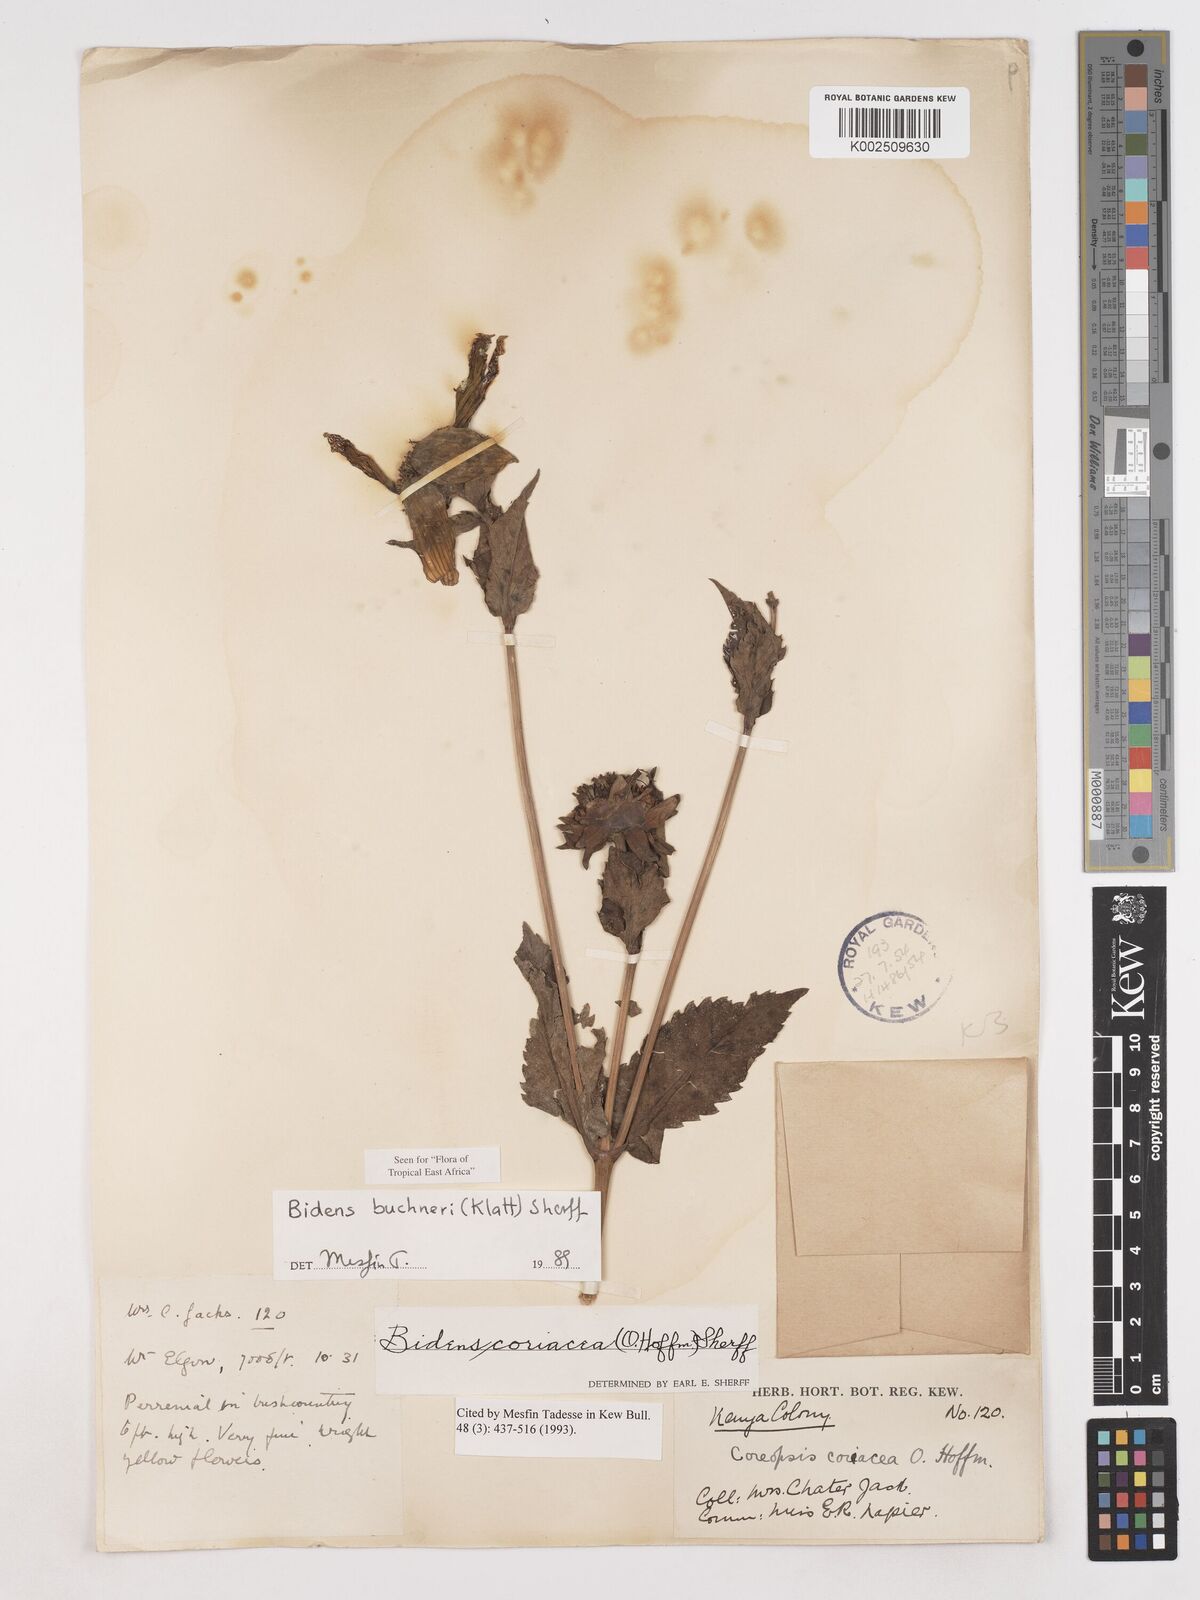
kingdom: Plantae
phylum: Tracheophyta
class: Magnoliopsida
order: Asterales
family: Asteraceae
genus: Bidens
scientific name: Bidens buchneri
